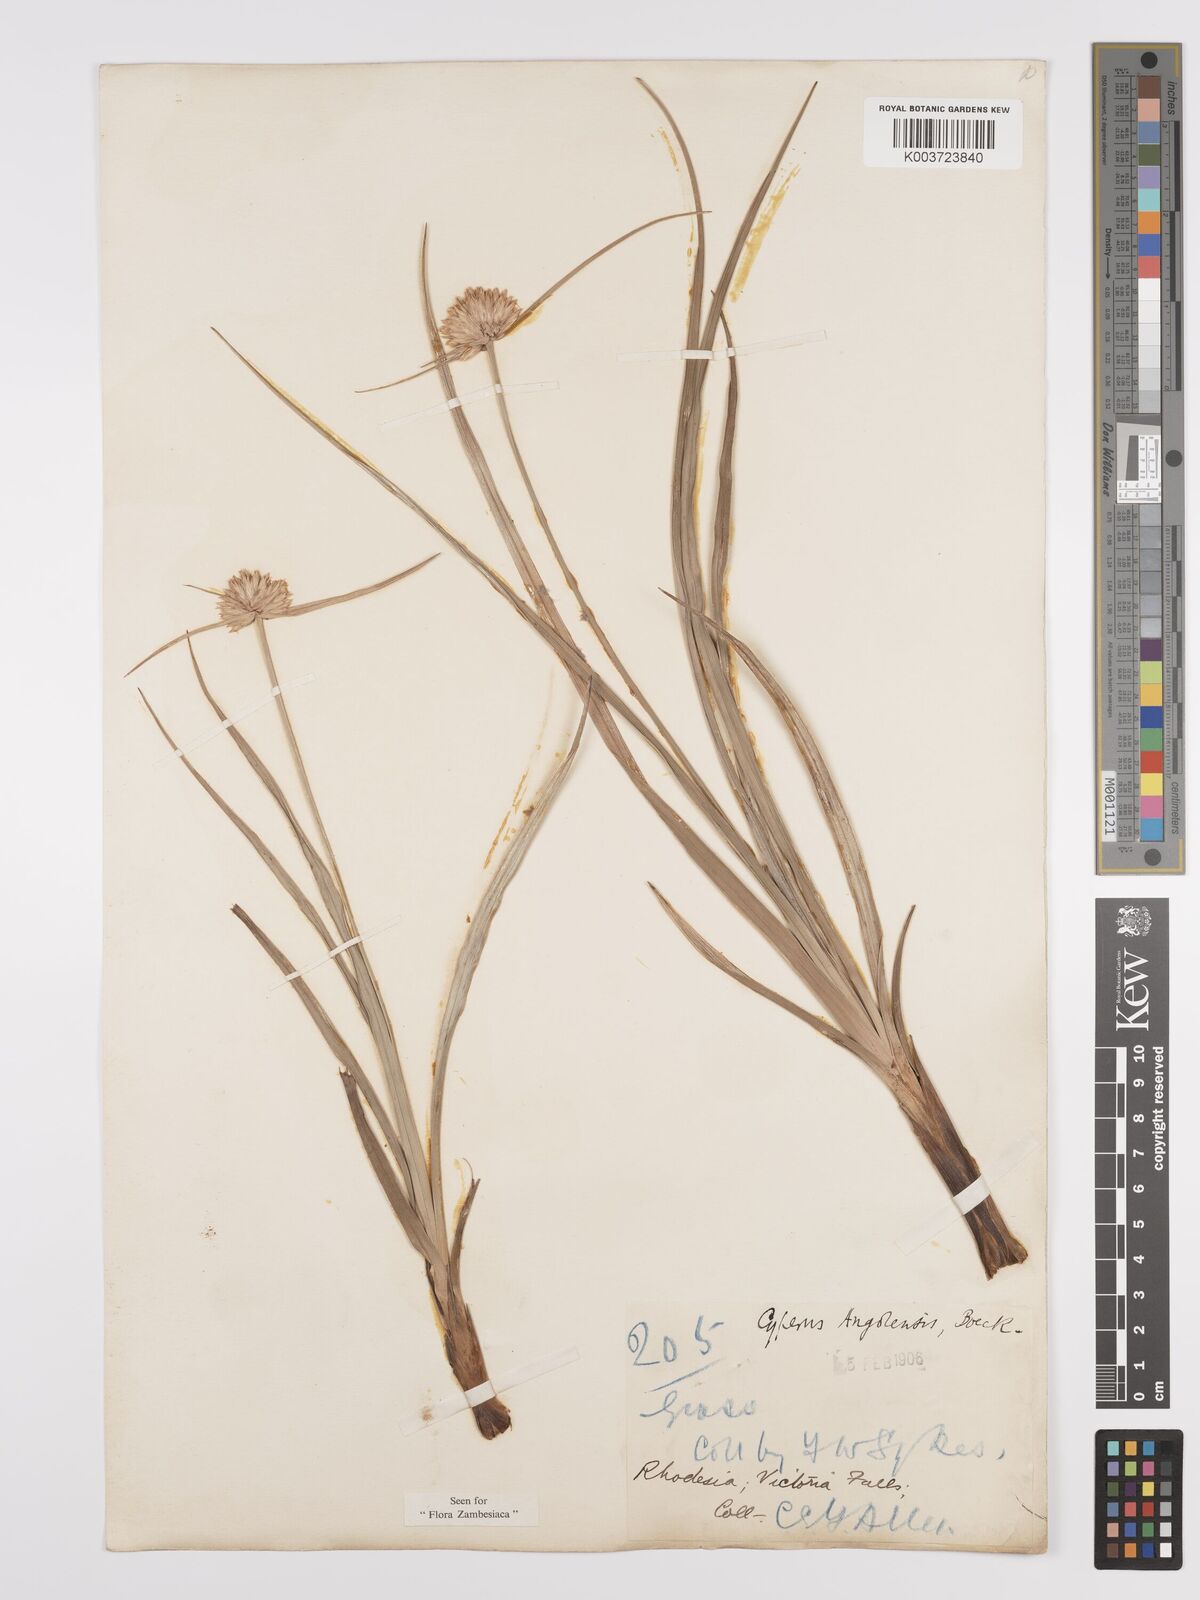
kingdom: Plantae
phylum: Tracheophyta
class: Liliopsida
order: Poales
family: Cyperaceae
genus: Cyperus
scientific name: Cyperus angolensis
